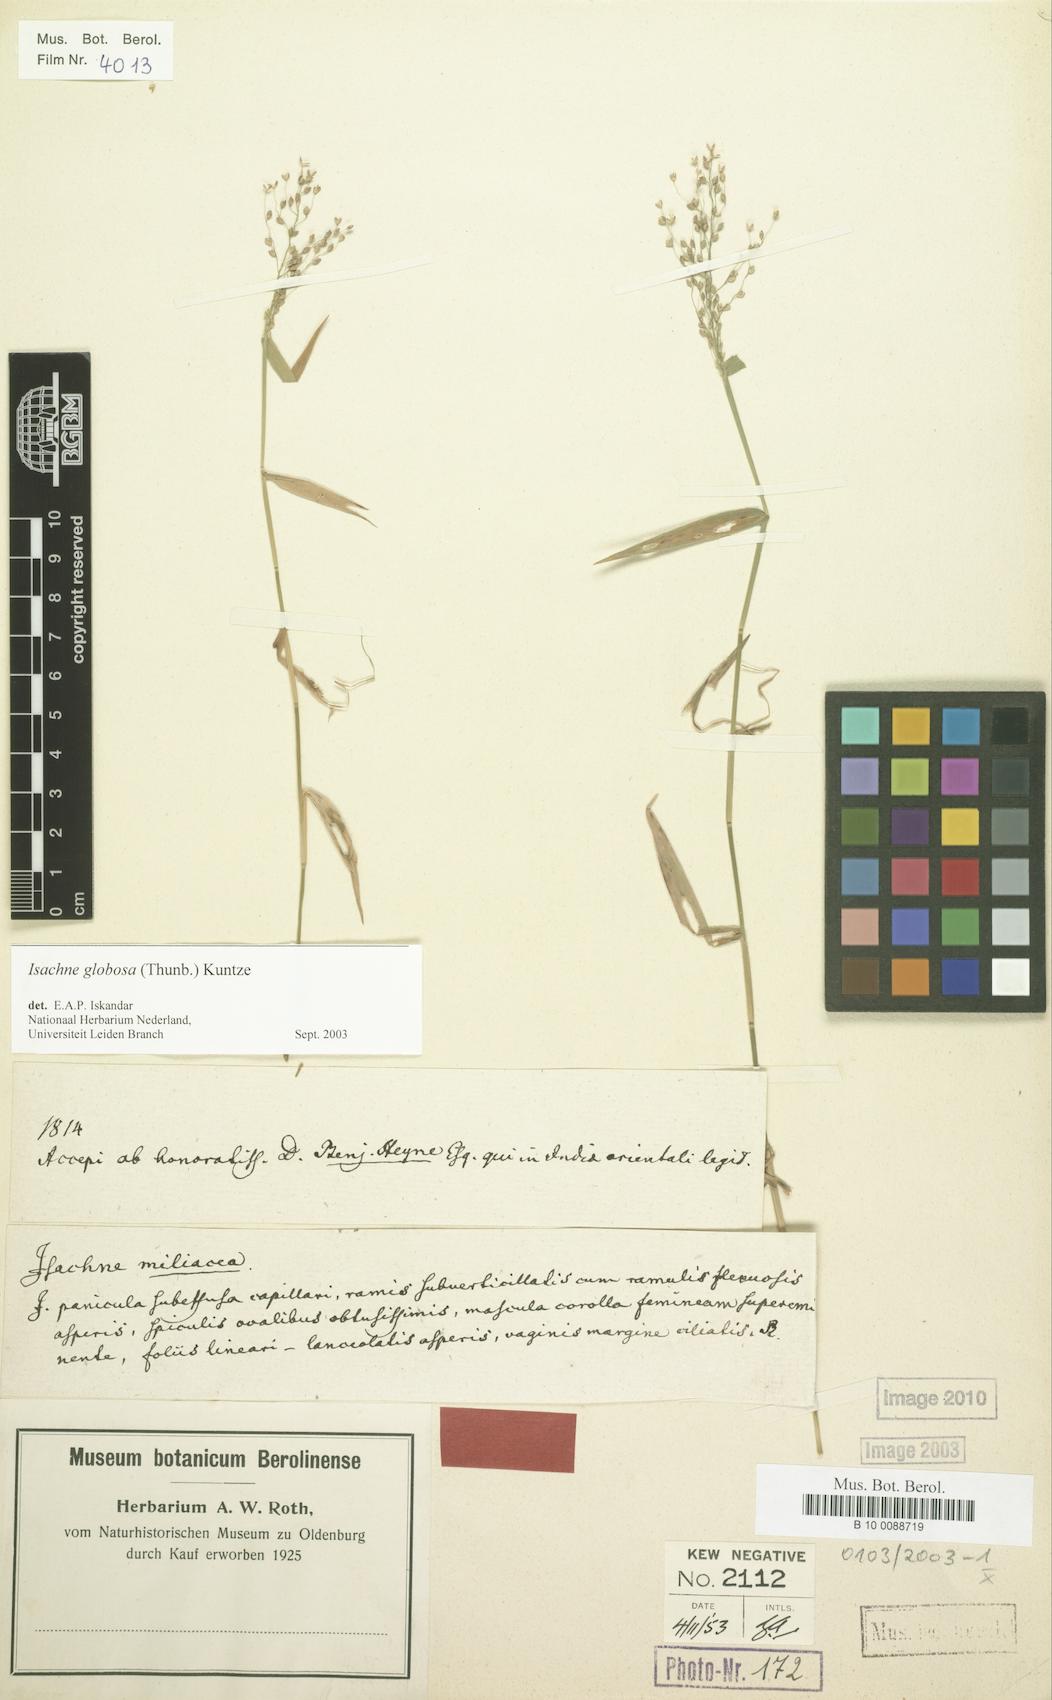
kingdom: Plantae
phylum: Tracheophyta
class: Liliopsida
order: Poales
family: Poaceae
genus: Isachne
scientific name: Isachne globosa
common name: Swamp millet
